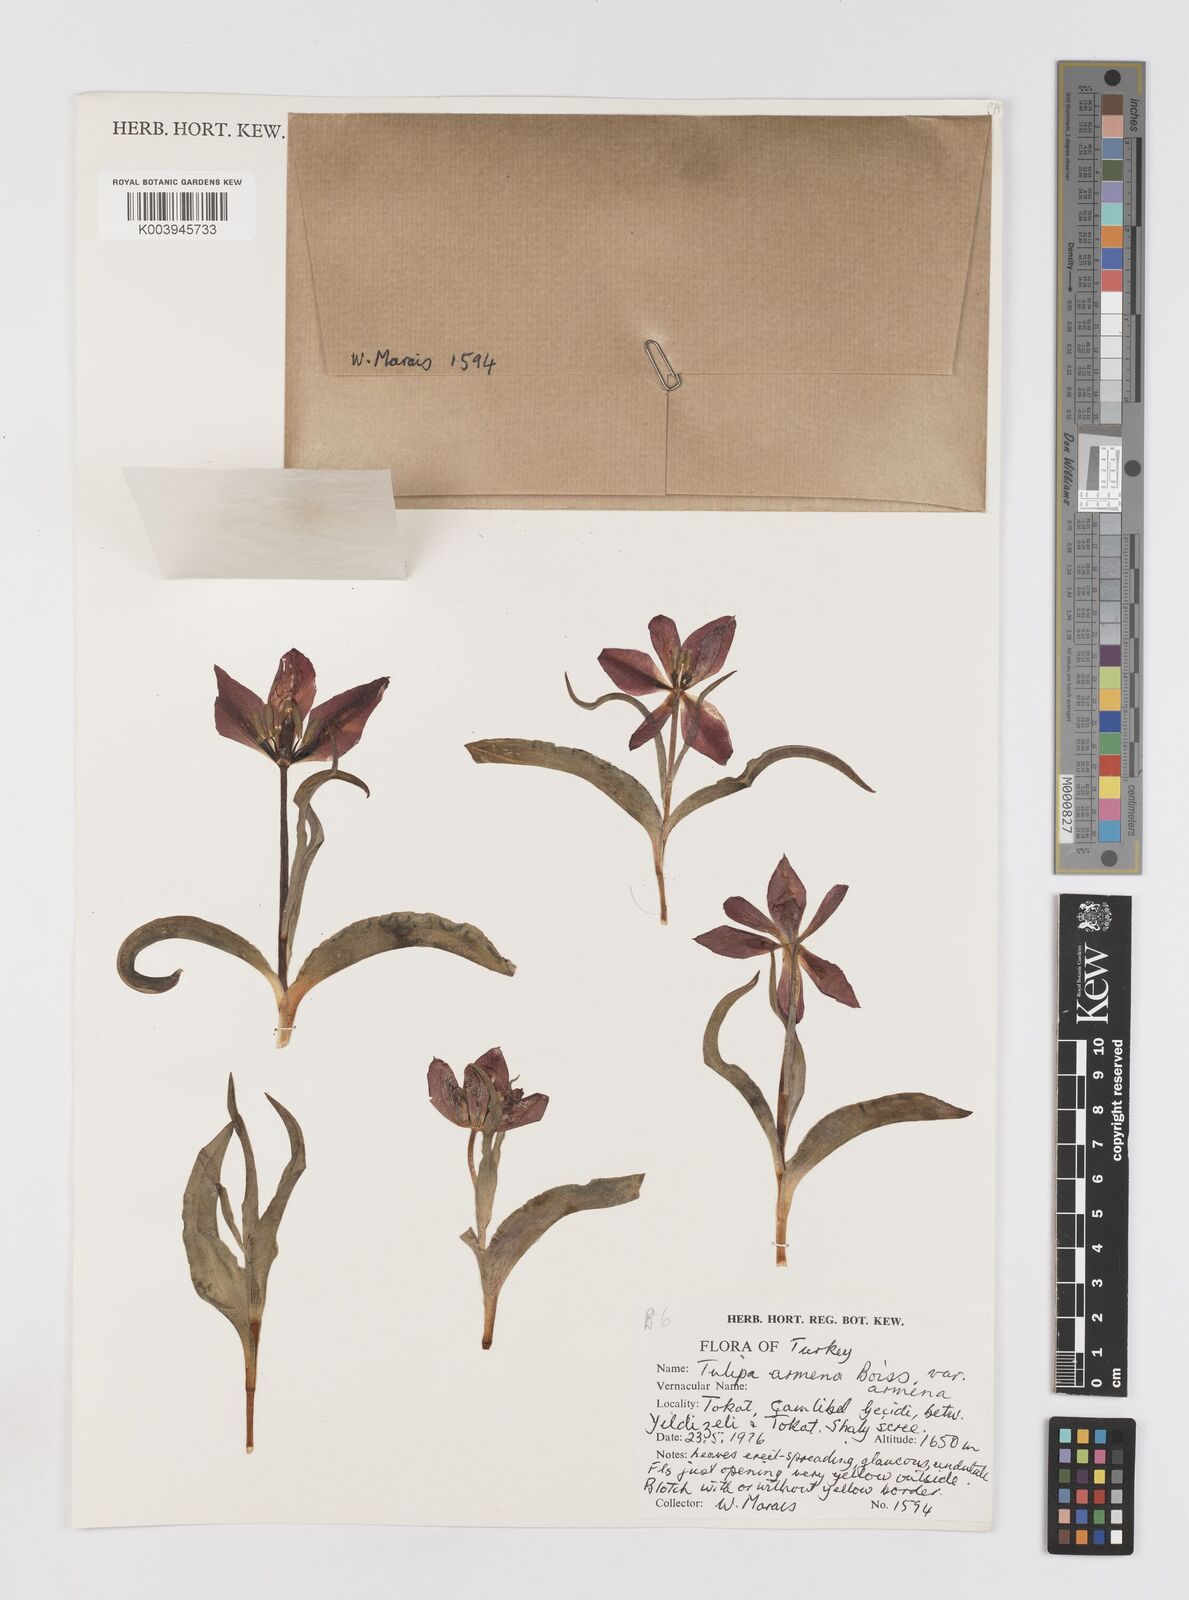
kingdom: Plantae
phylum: Tracheophyta
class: Liliopsida
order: Liliales
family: Liliaceae
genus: Tulipa
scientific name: Tulipa armena
